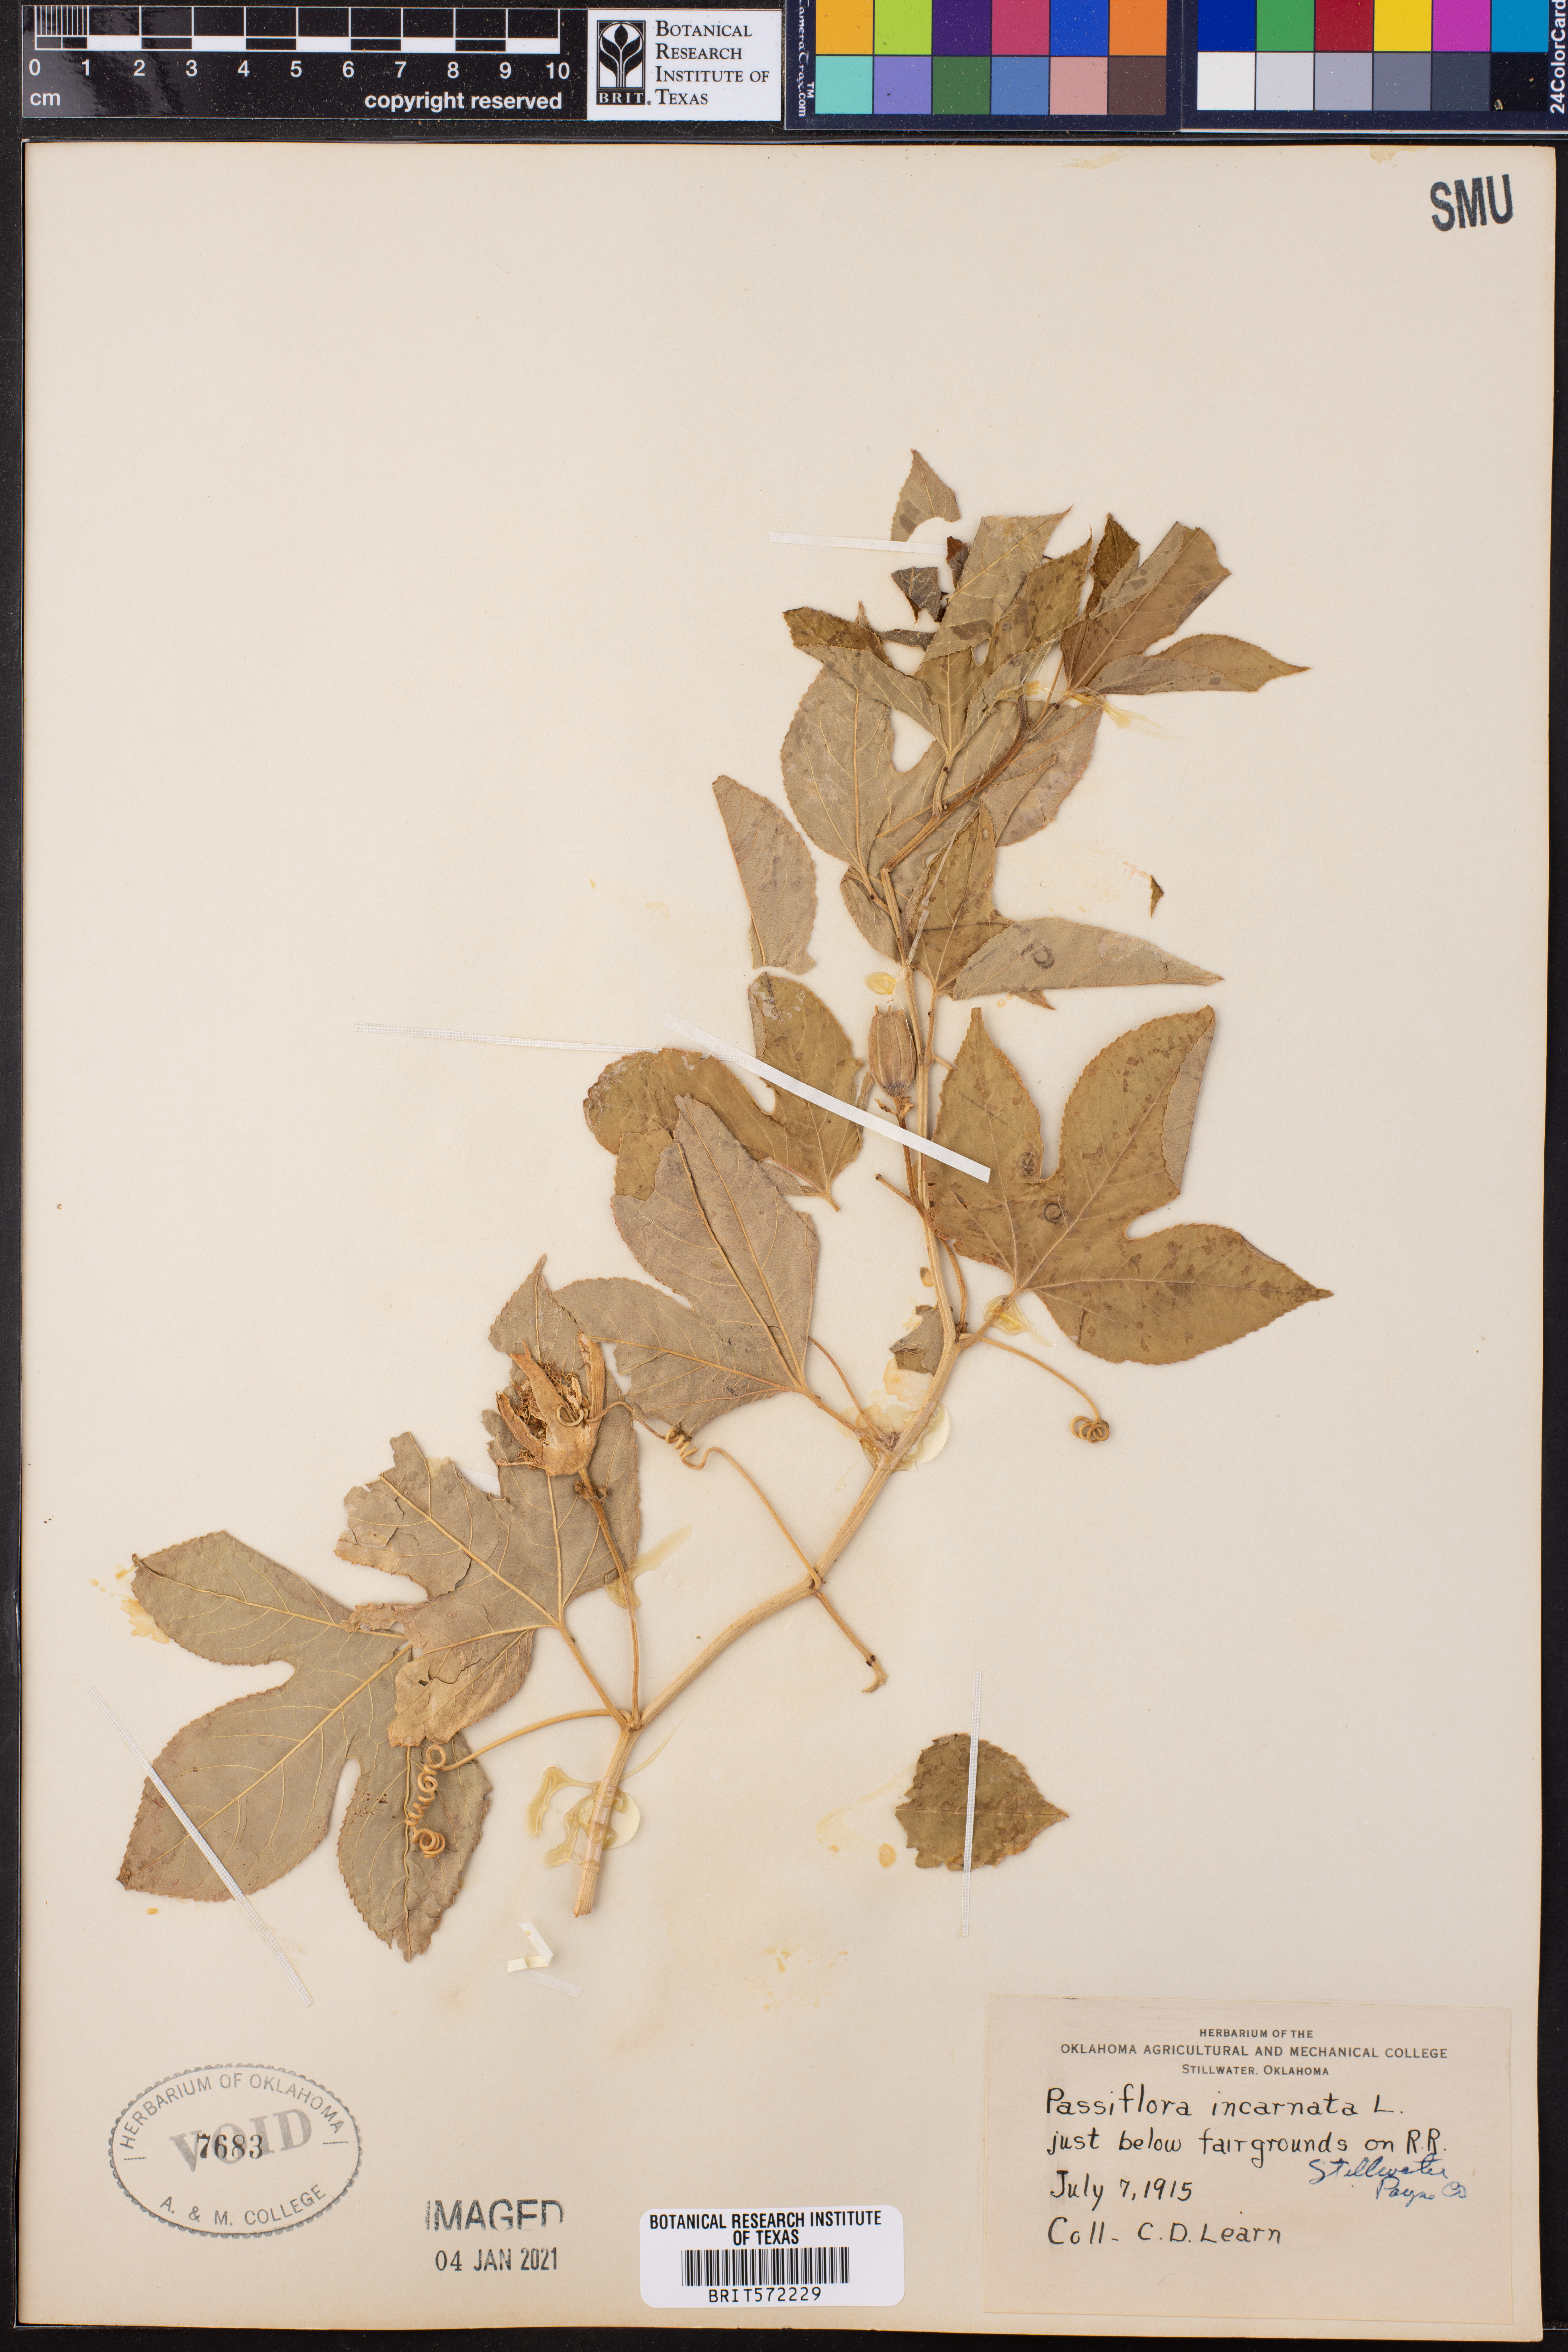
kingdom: Plantae
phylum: Tracheophyta
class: Magnoliopsida
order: Malpighiales
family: Passifloraceae
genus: Passiflora
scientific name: Passiflora incarnata
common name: Apricot-vine
